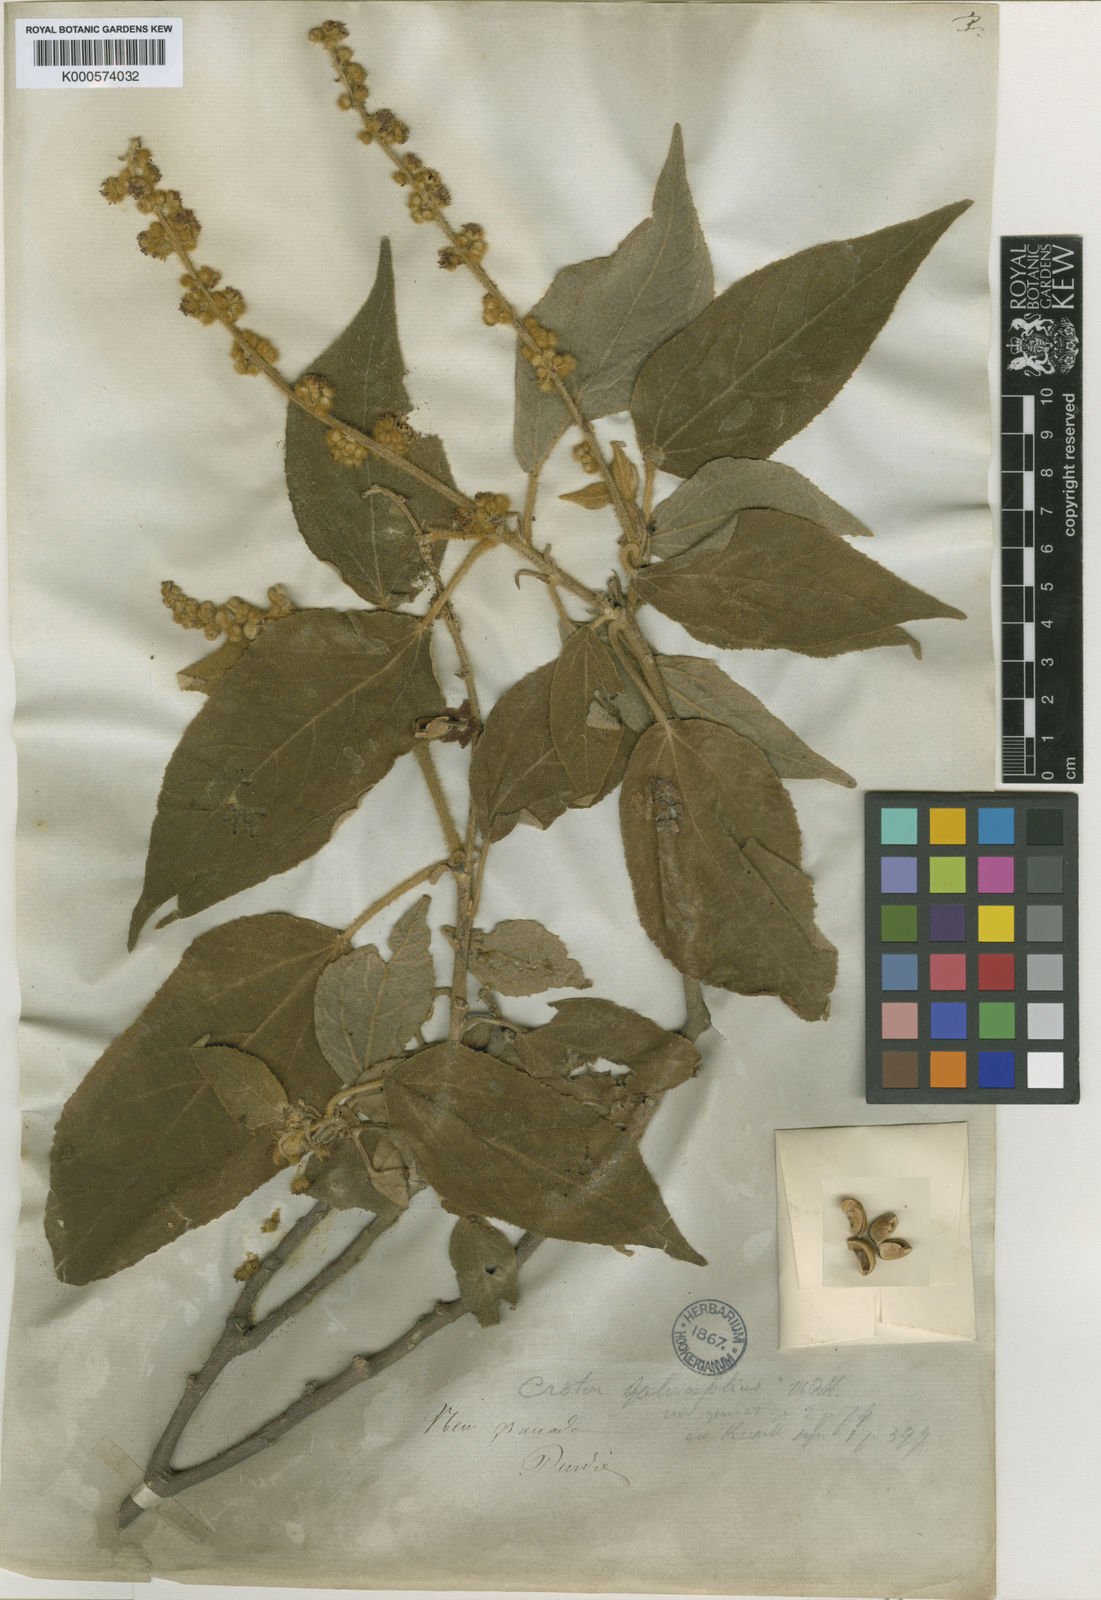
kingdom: Plantae
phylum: Tracheophyta
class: Magnoliopsida
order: Malpighiales
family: Euphorbiaceae
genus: Croton
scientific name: Croton
